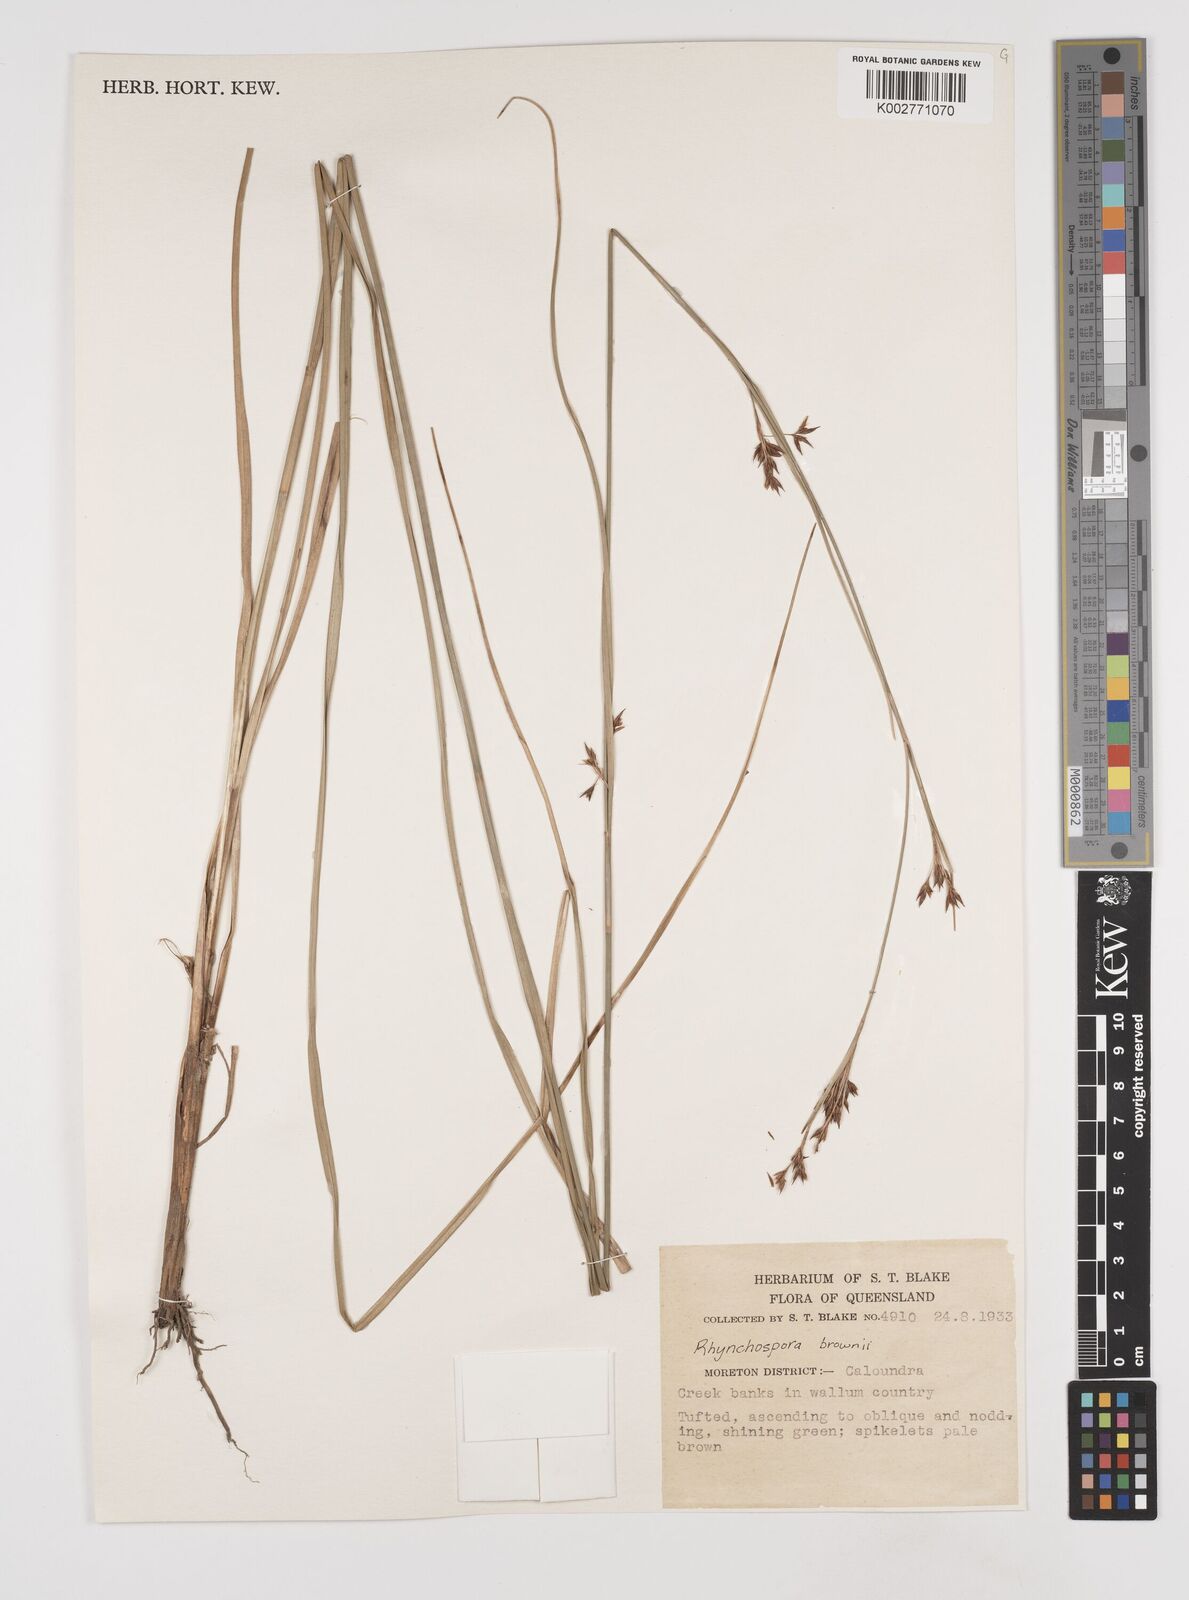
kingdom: Plantae
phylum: Tracheophyta
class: Liliopsida
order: Poales
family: Cyperaceae
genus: Rhynchospora
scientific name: Rhynchospora rugosa
